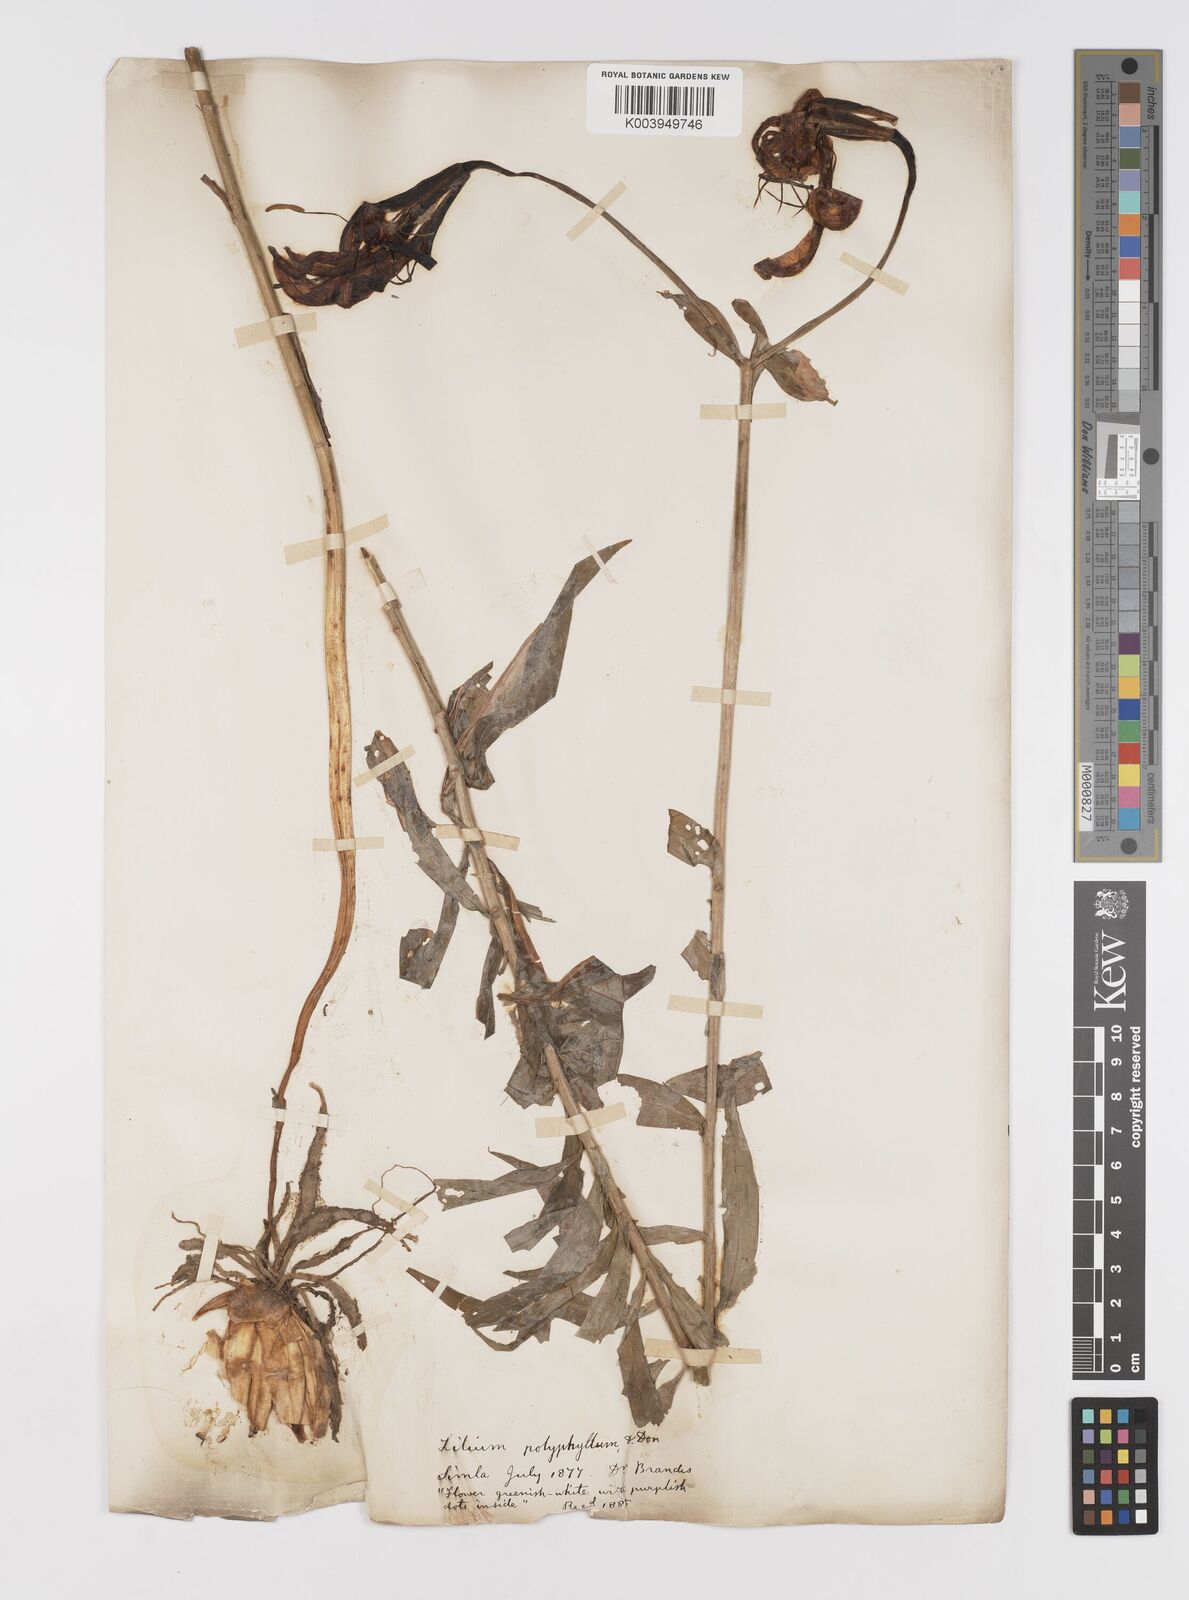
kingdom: Plantae
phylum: Tracheophyta
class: Liliopsida
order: Liliales
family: Liliaceae
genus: Lilium
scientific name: Lilium polyphyllum
